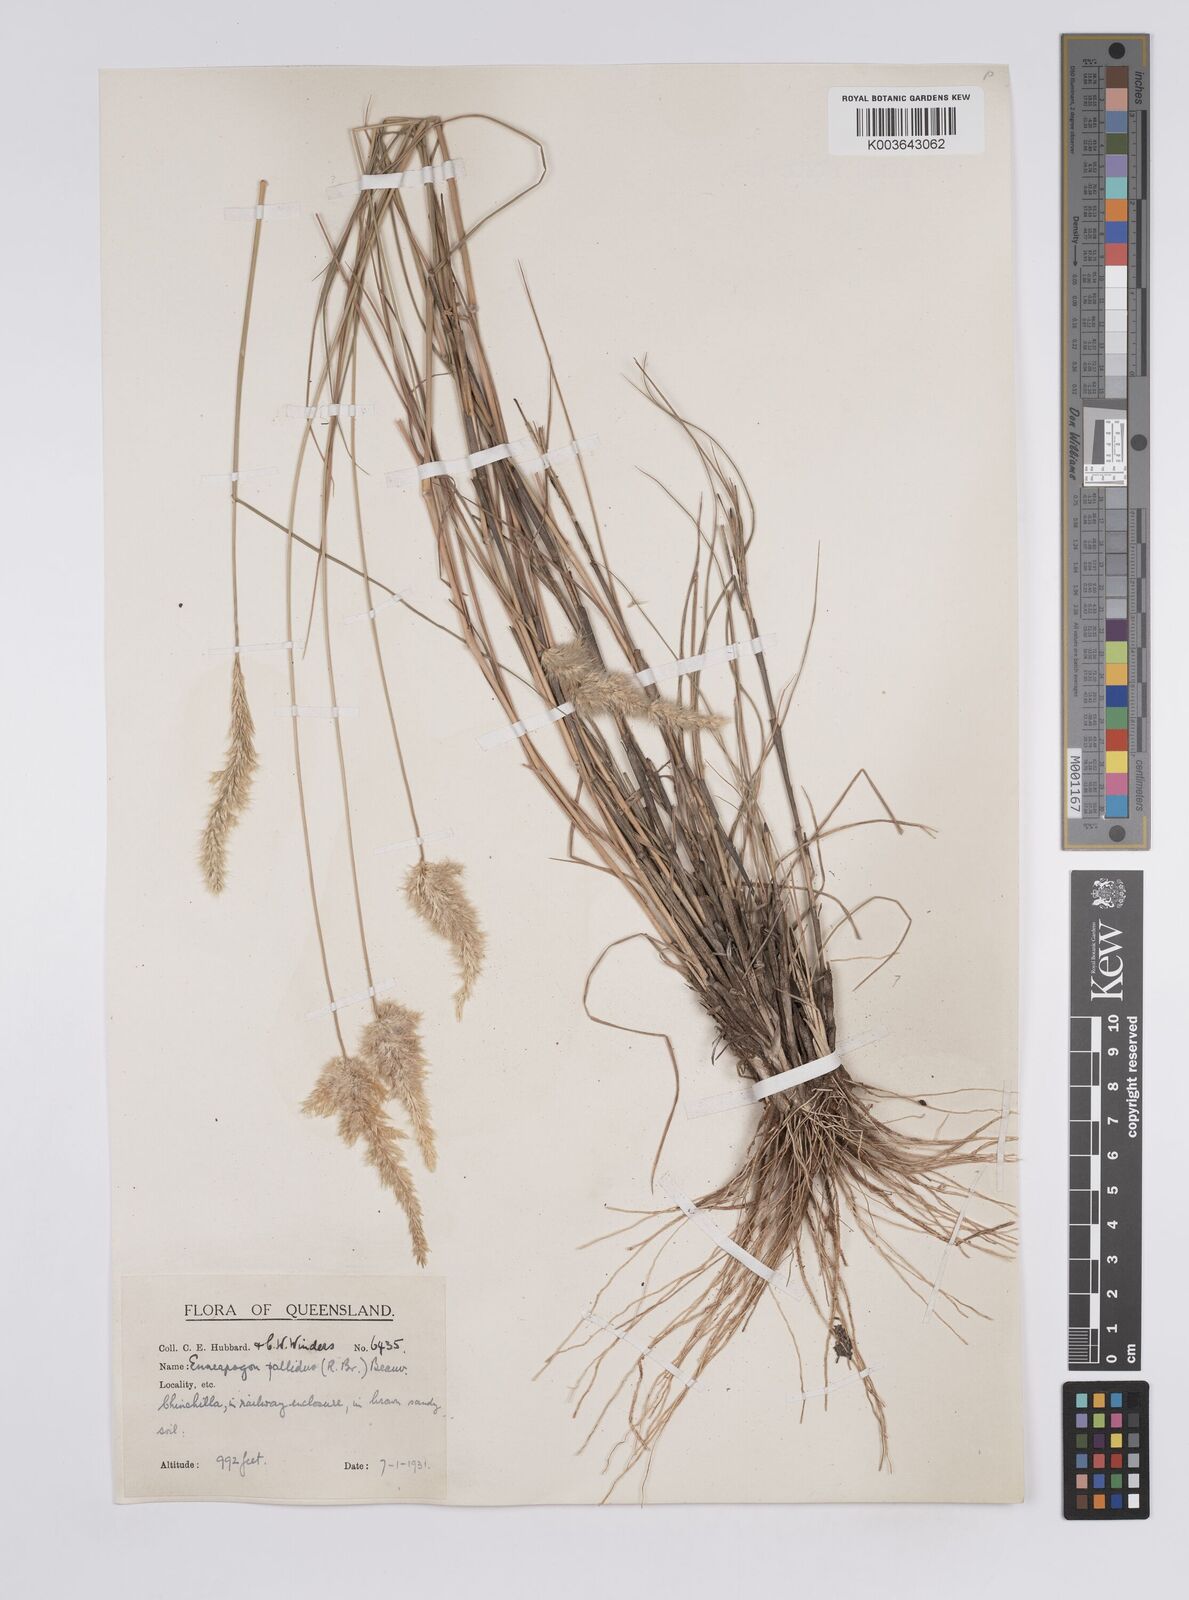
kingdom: Plantae
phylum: Tracheophyta
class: Liliopsida
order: Poales
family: Poaceae
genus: Enneapogon
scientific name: Enneapogon pallidus
